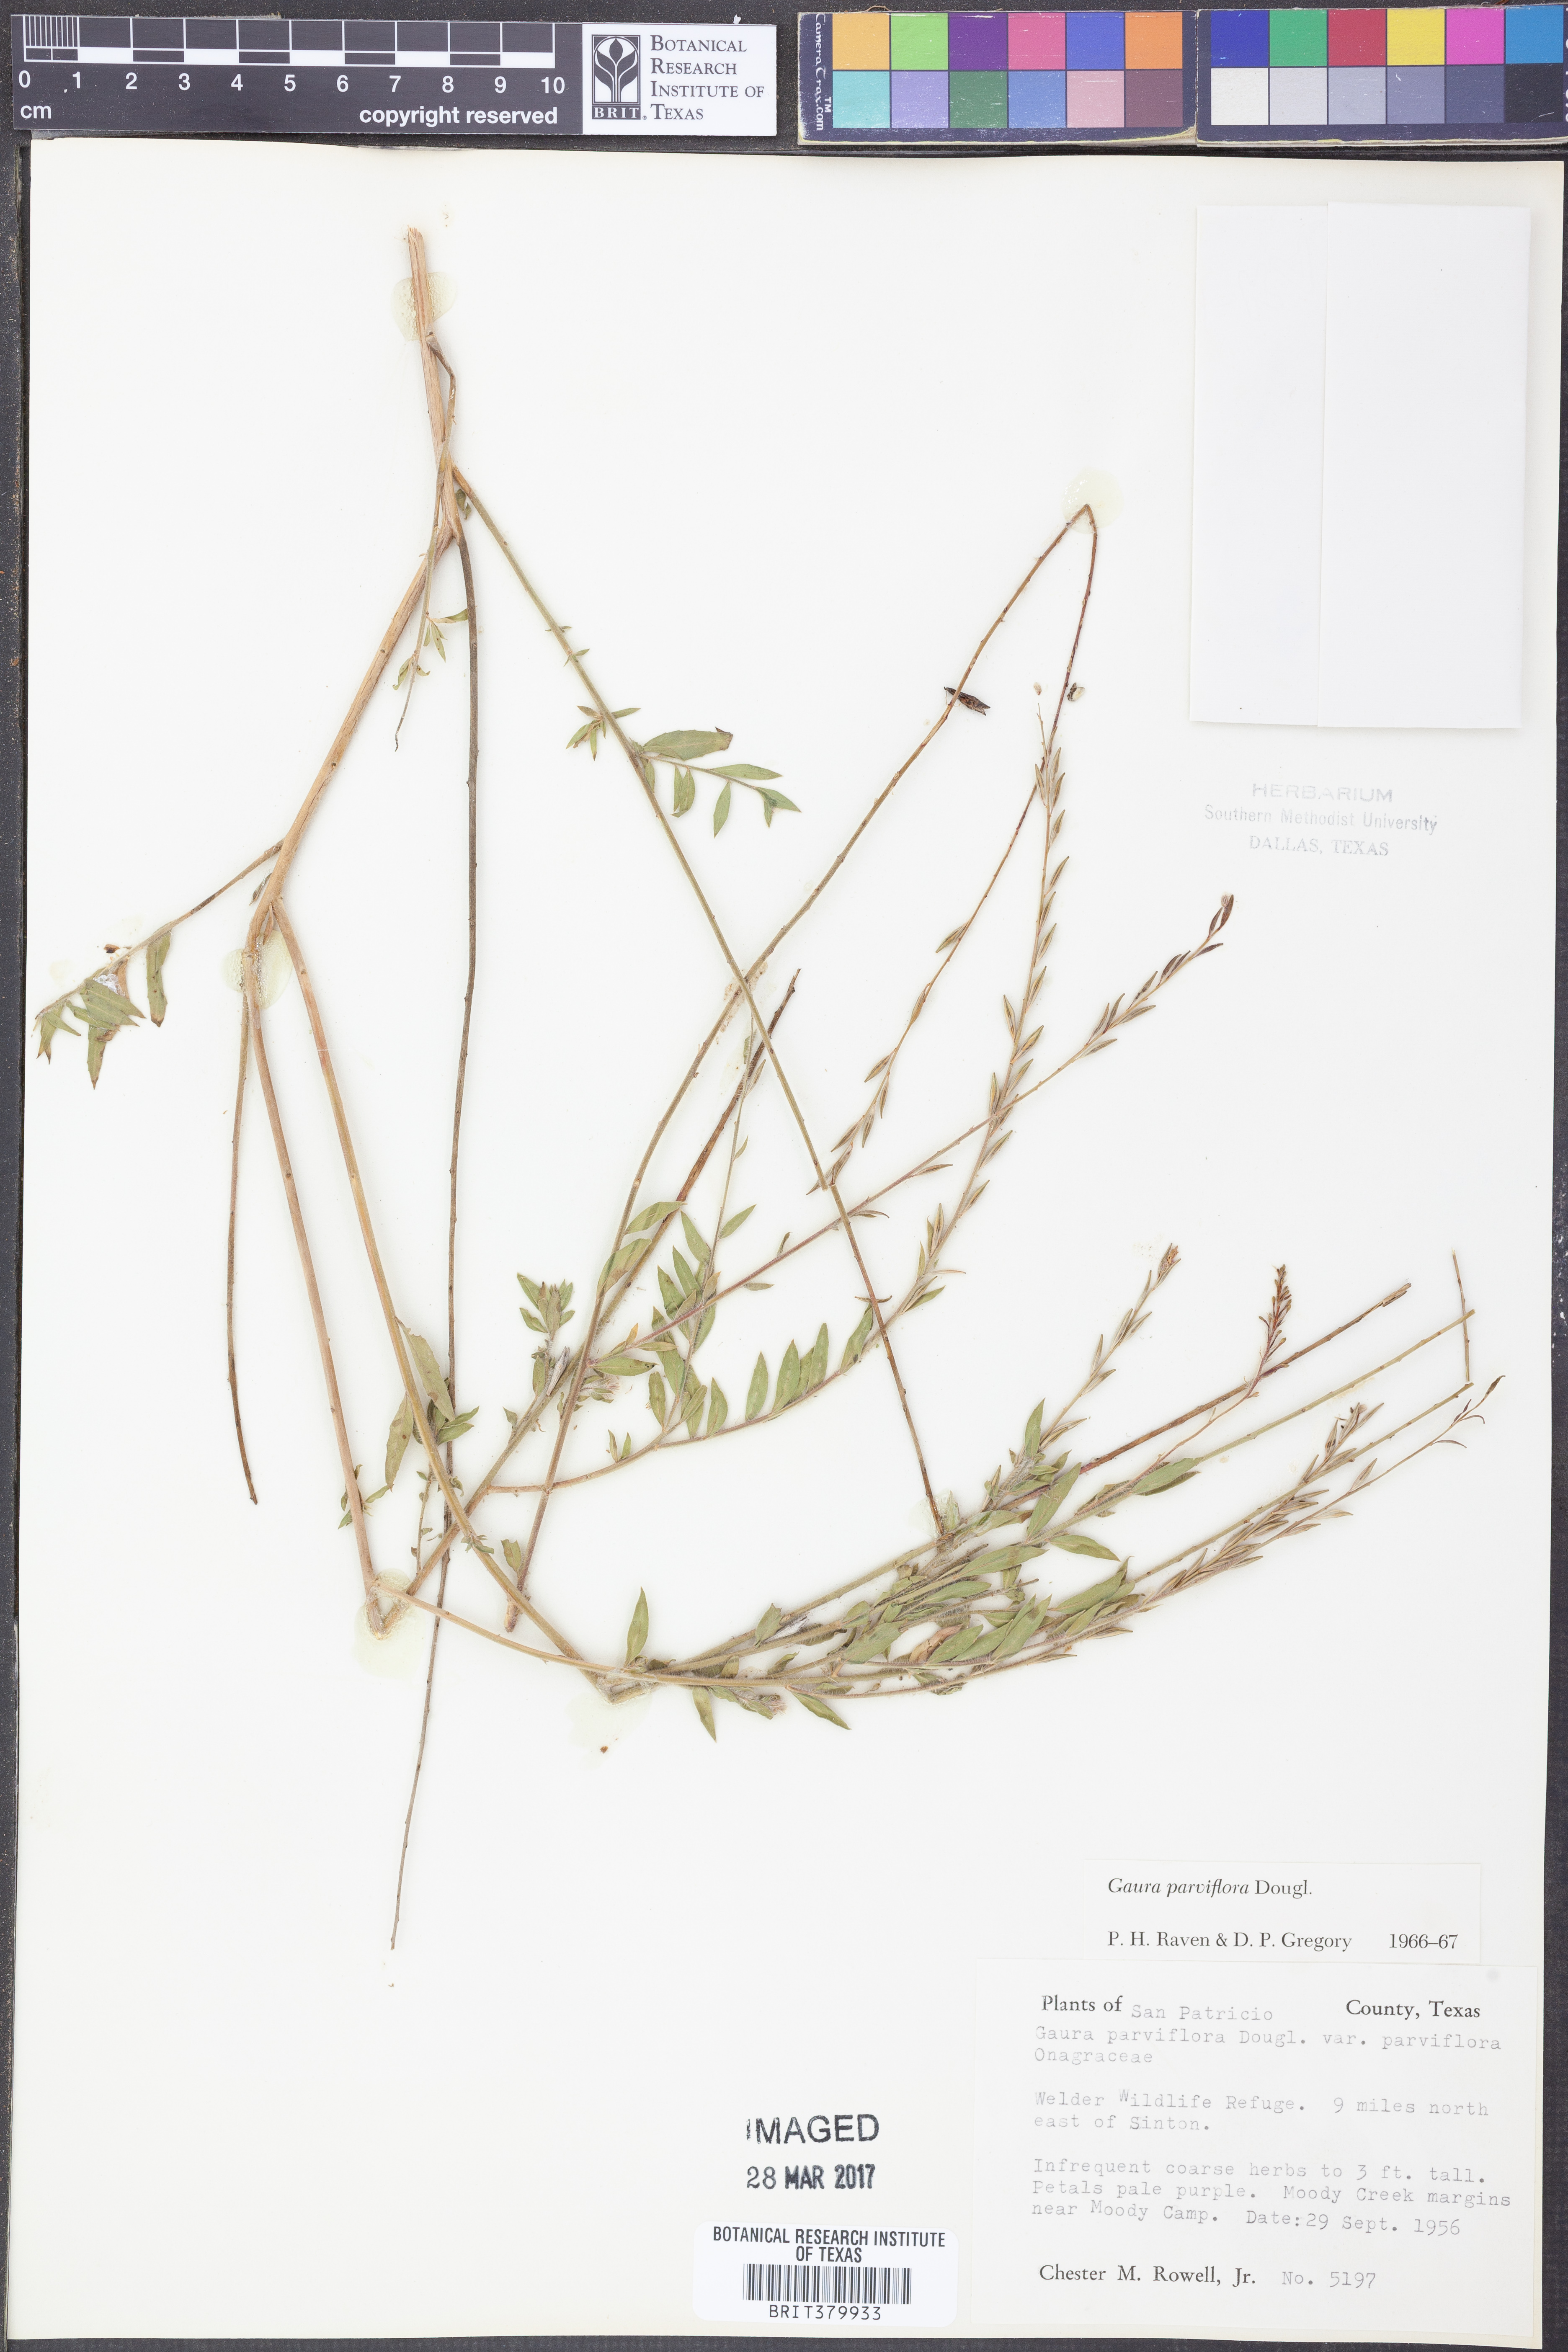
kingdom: Plantae
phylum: Tracheophyta
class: Magnoliopsida
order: Myrtales
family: Onagraceae
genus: Oenothera
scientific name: Oenothera curtiflora
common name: Velvetweed
